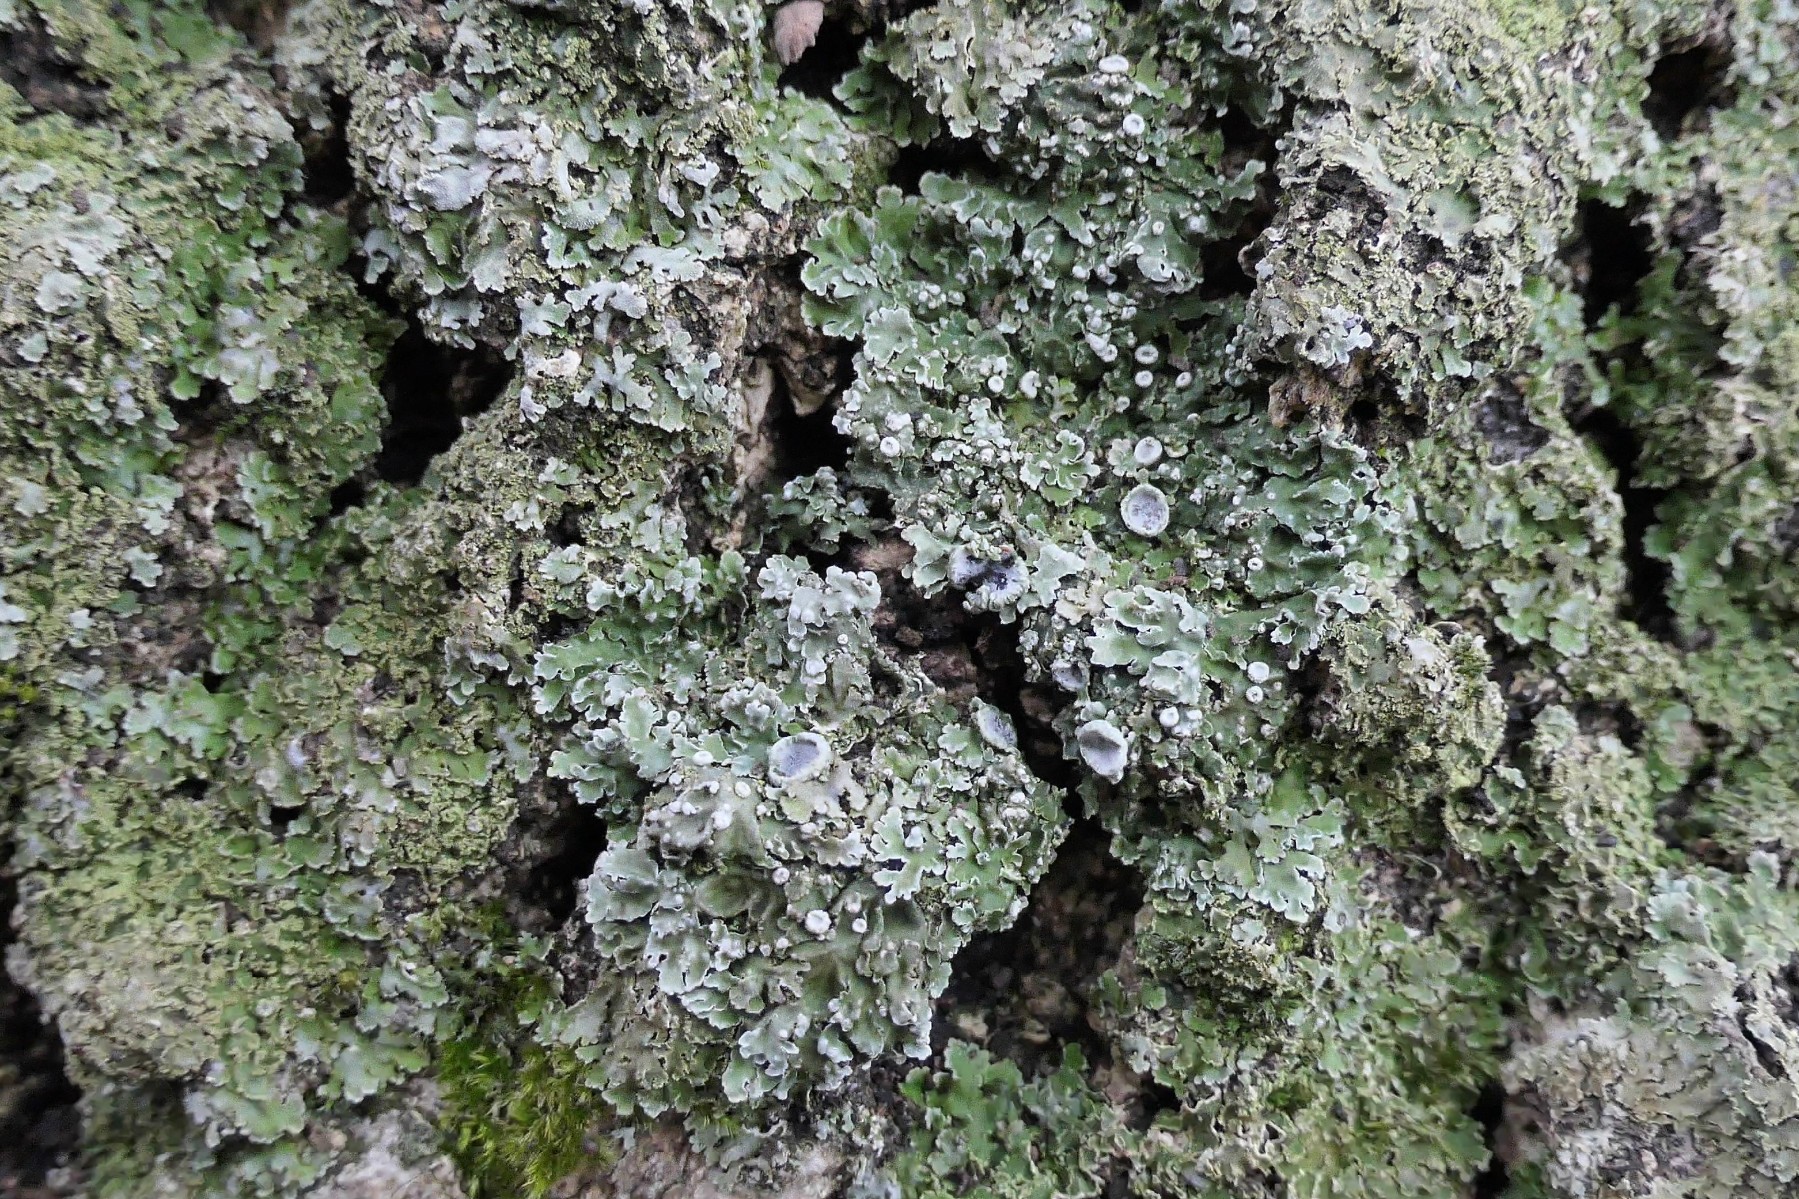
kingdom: Fungi
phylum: Ascomycota
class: Lecanoromycetes
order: Caliciales
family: Physciaceae
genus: Physconia
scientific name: Physconia distorta
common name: pudret dugrosetlav
